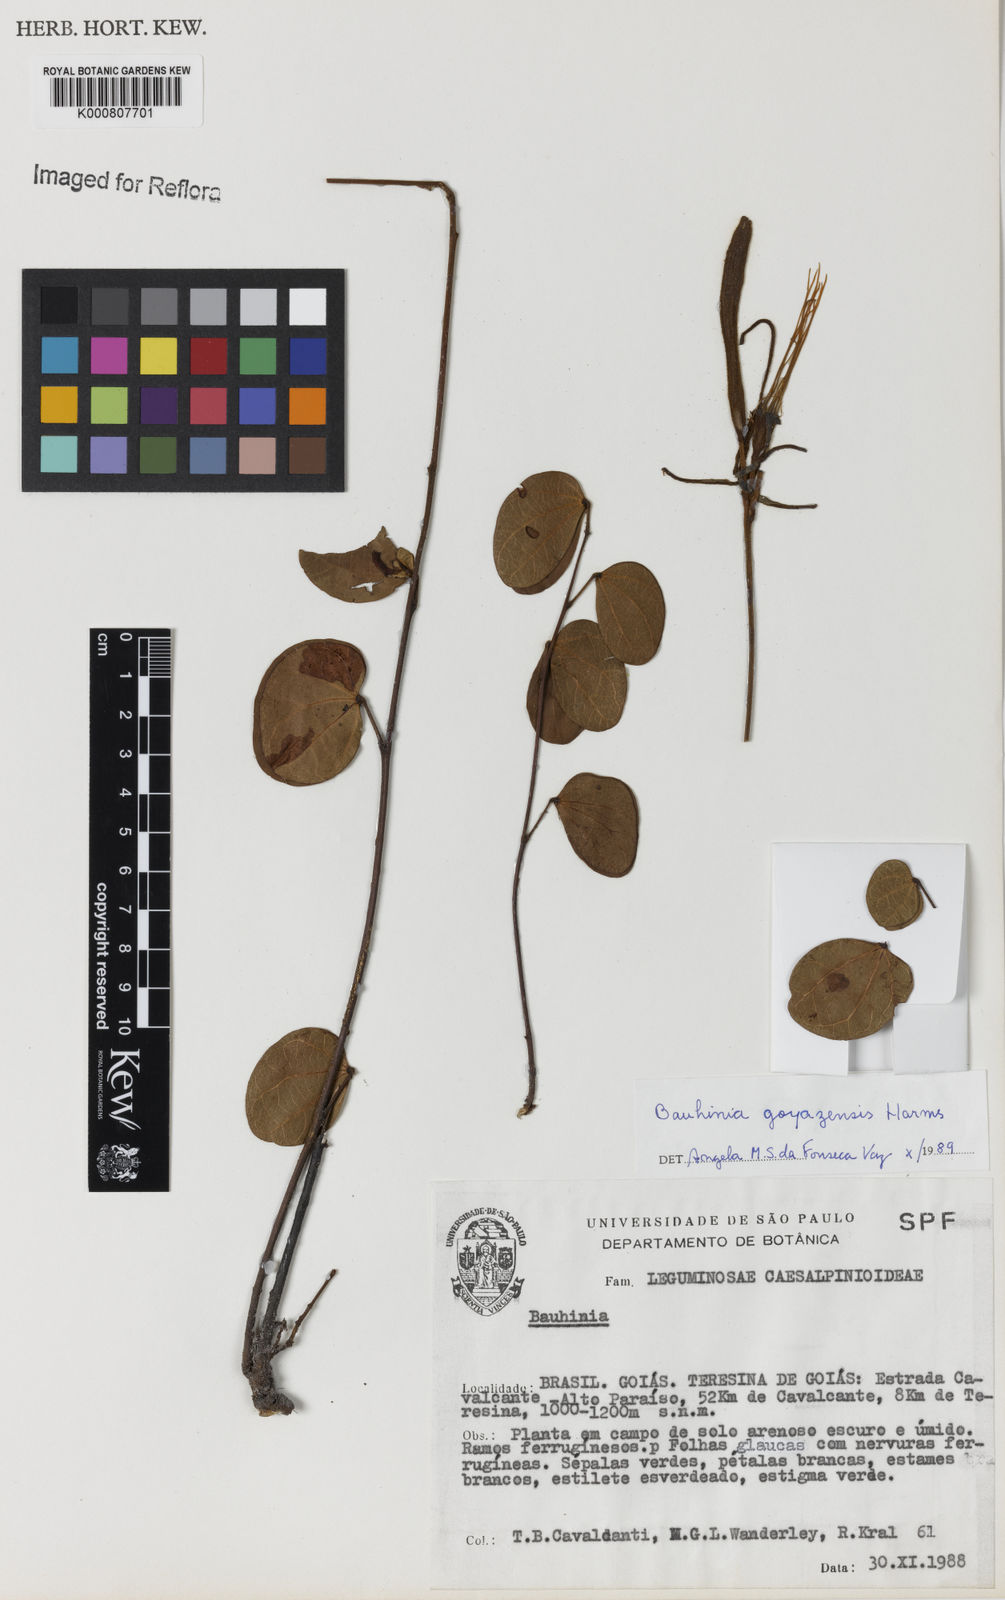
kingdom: Plantae
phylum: Tracheophyta
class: Magnoliopsida
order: Fabales
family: Fabaceae
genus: Bauhinia
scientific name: Bauhinia goyazensis
